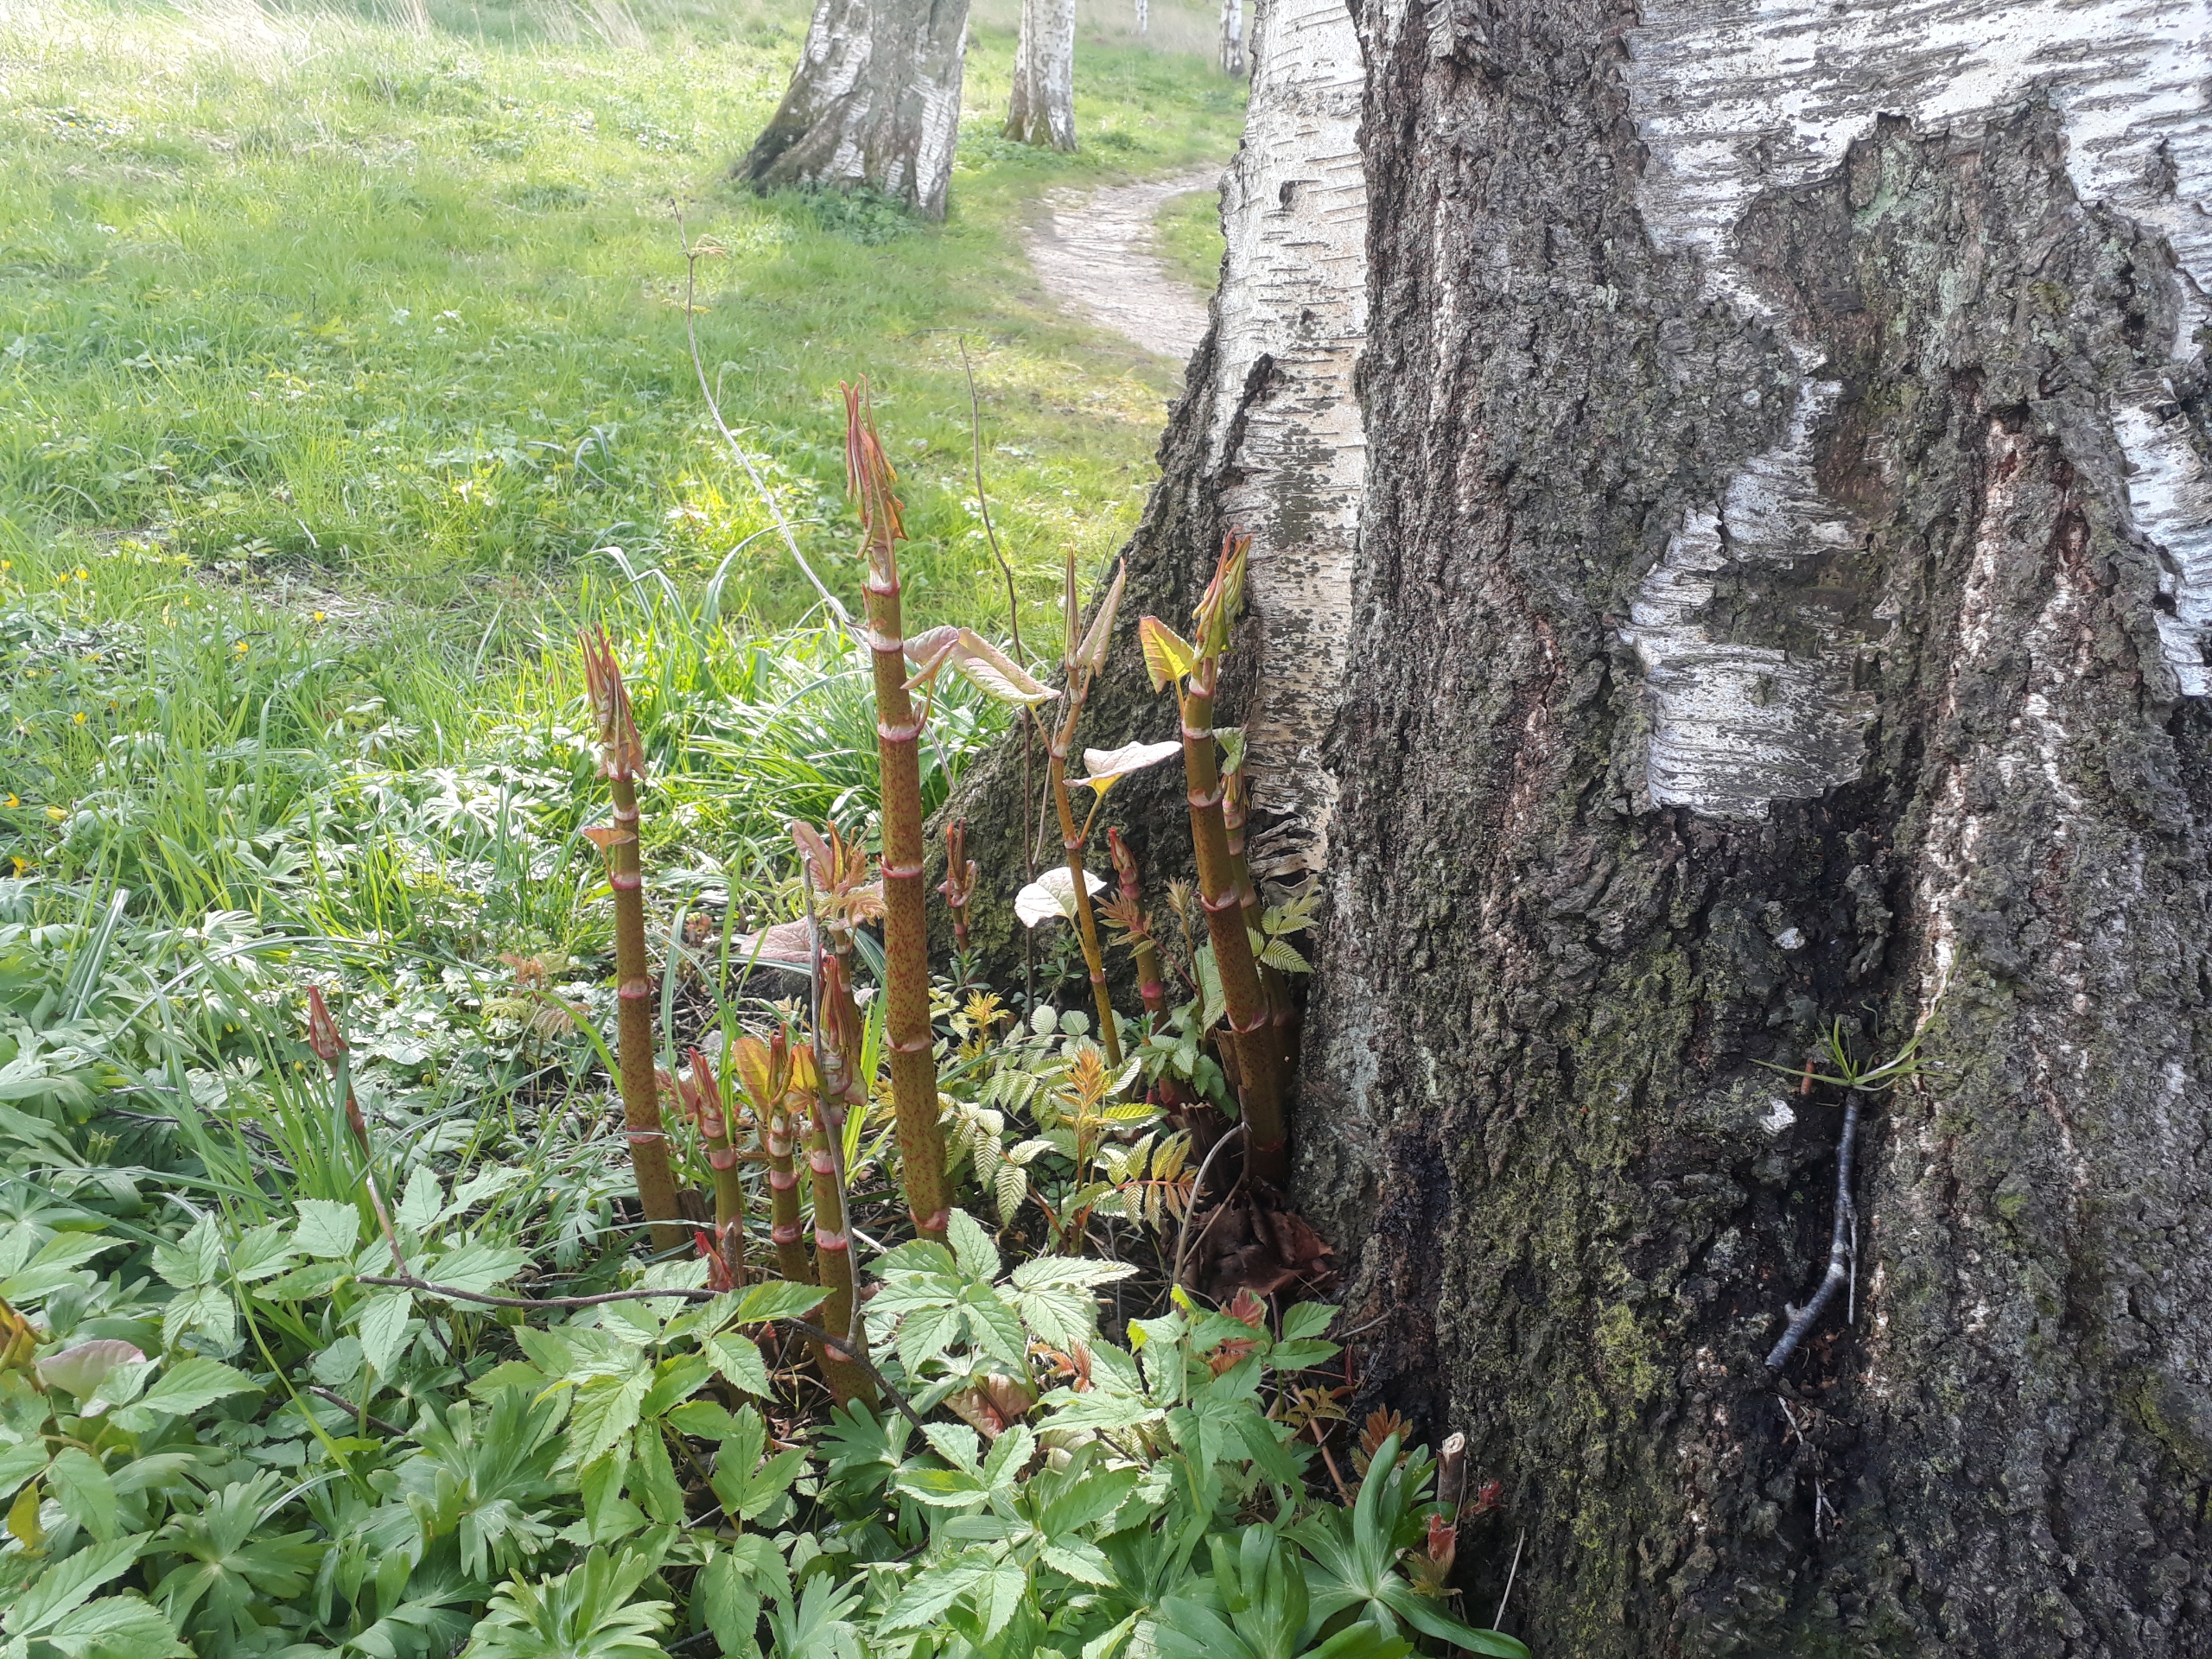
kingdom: Plantae
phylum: Tracheophyta
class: Magnoliopsida
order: Caryophyllales
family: Polygonaceae
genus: Reynoutria
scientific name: Reynoutria japonica
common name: Japan-pileurt
